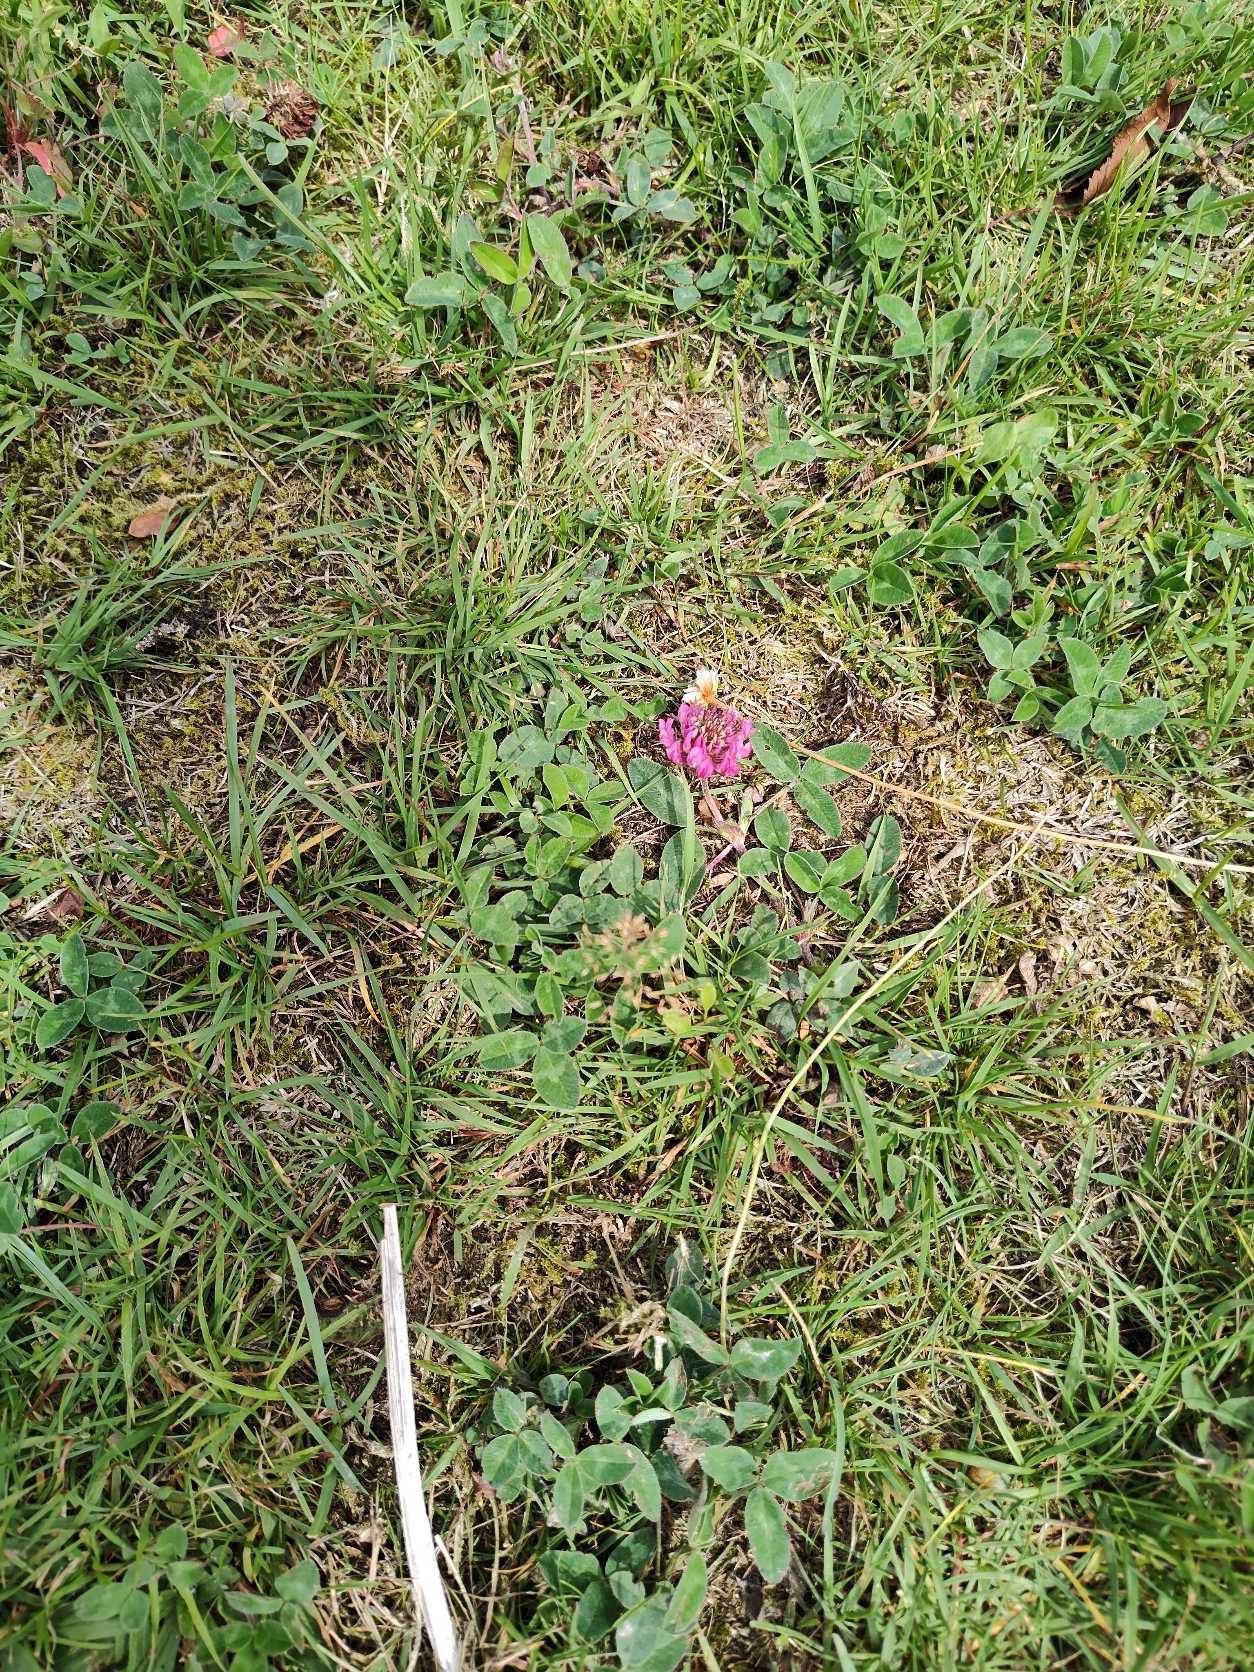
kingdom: Plantae
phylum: Tracheophyta
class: Magnoliopsida
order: Fabales
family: Fabaceae
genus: Trifolium
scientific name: Trifolium pratense
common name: Rød-kløver
